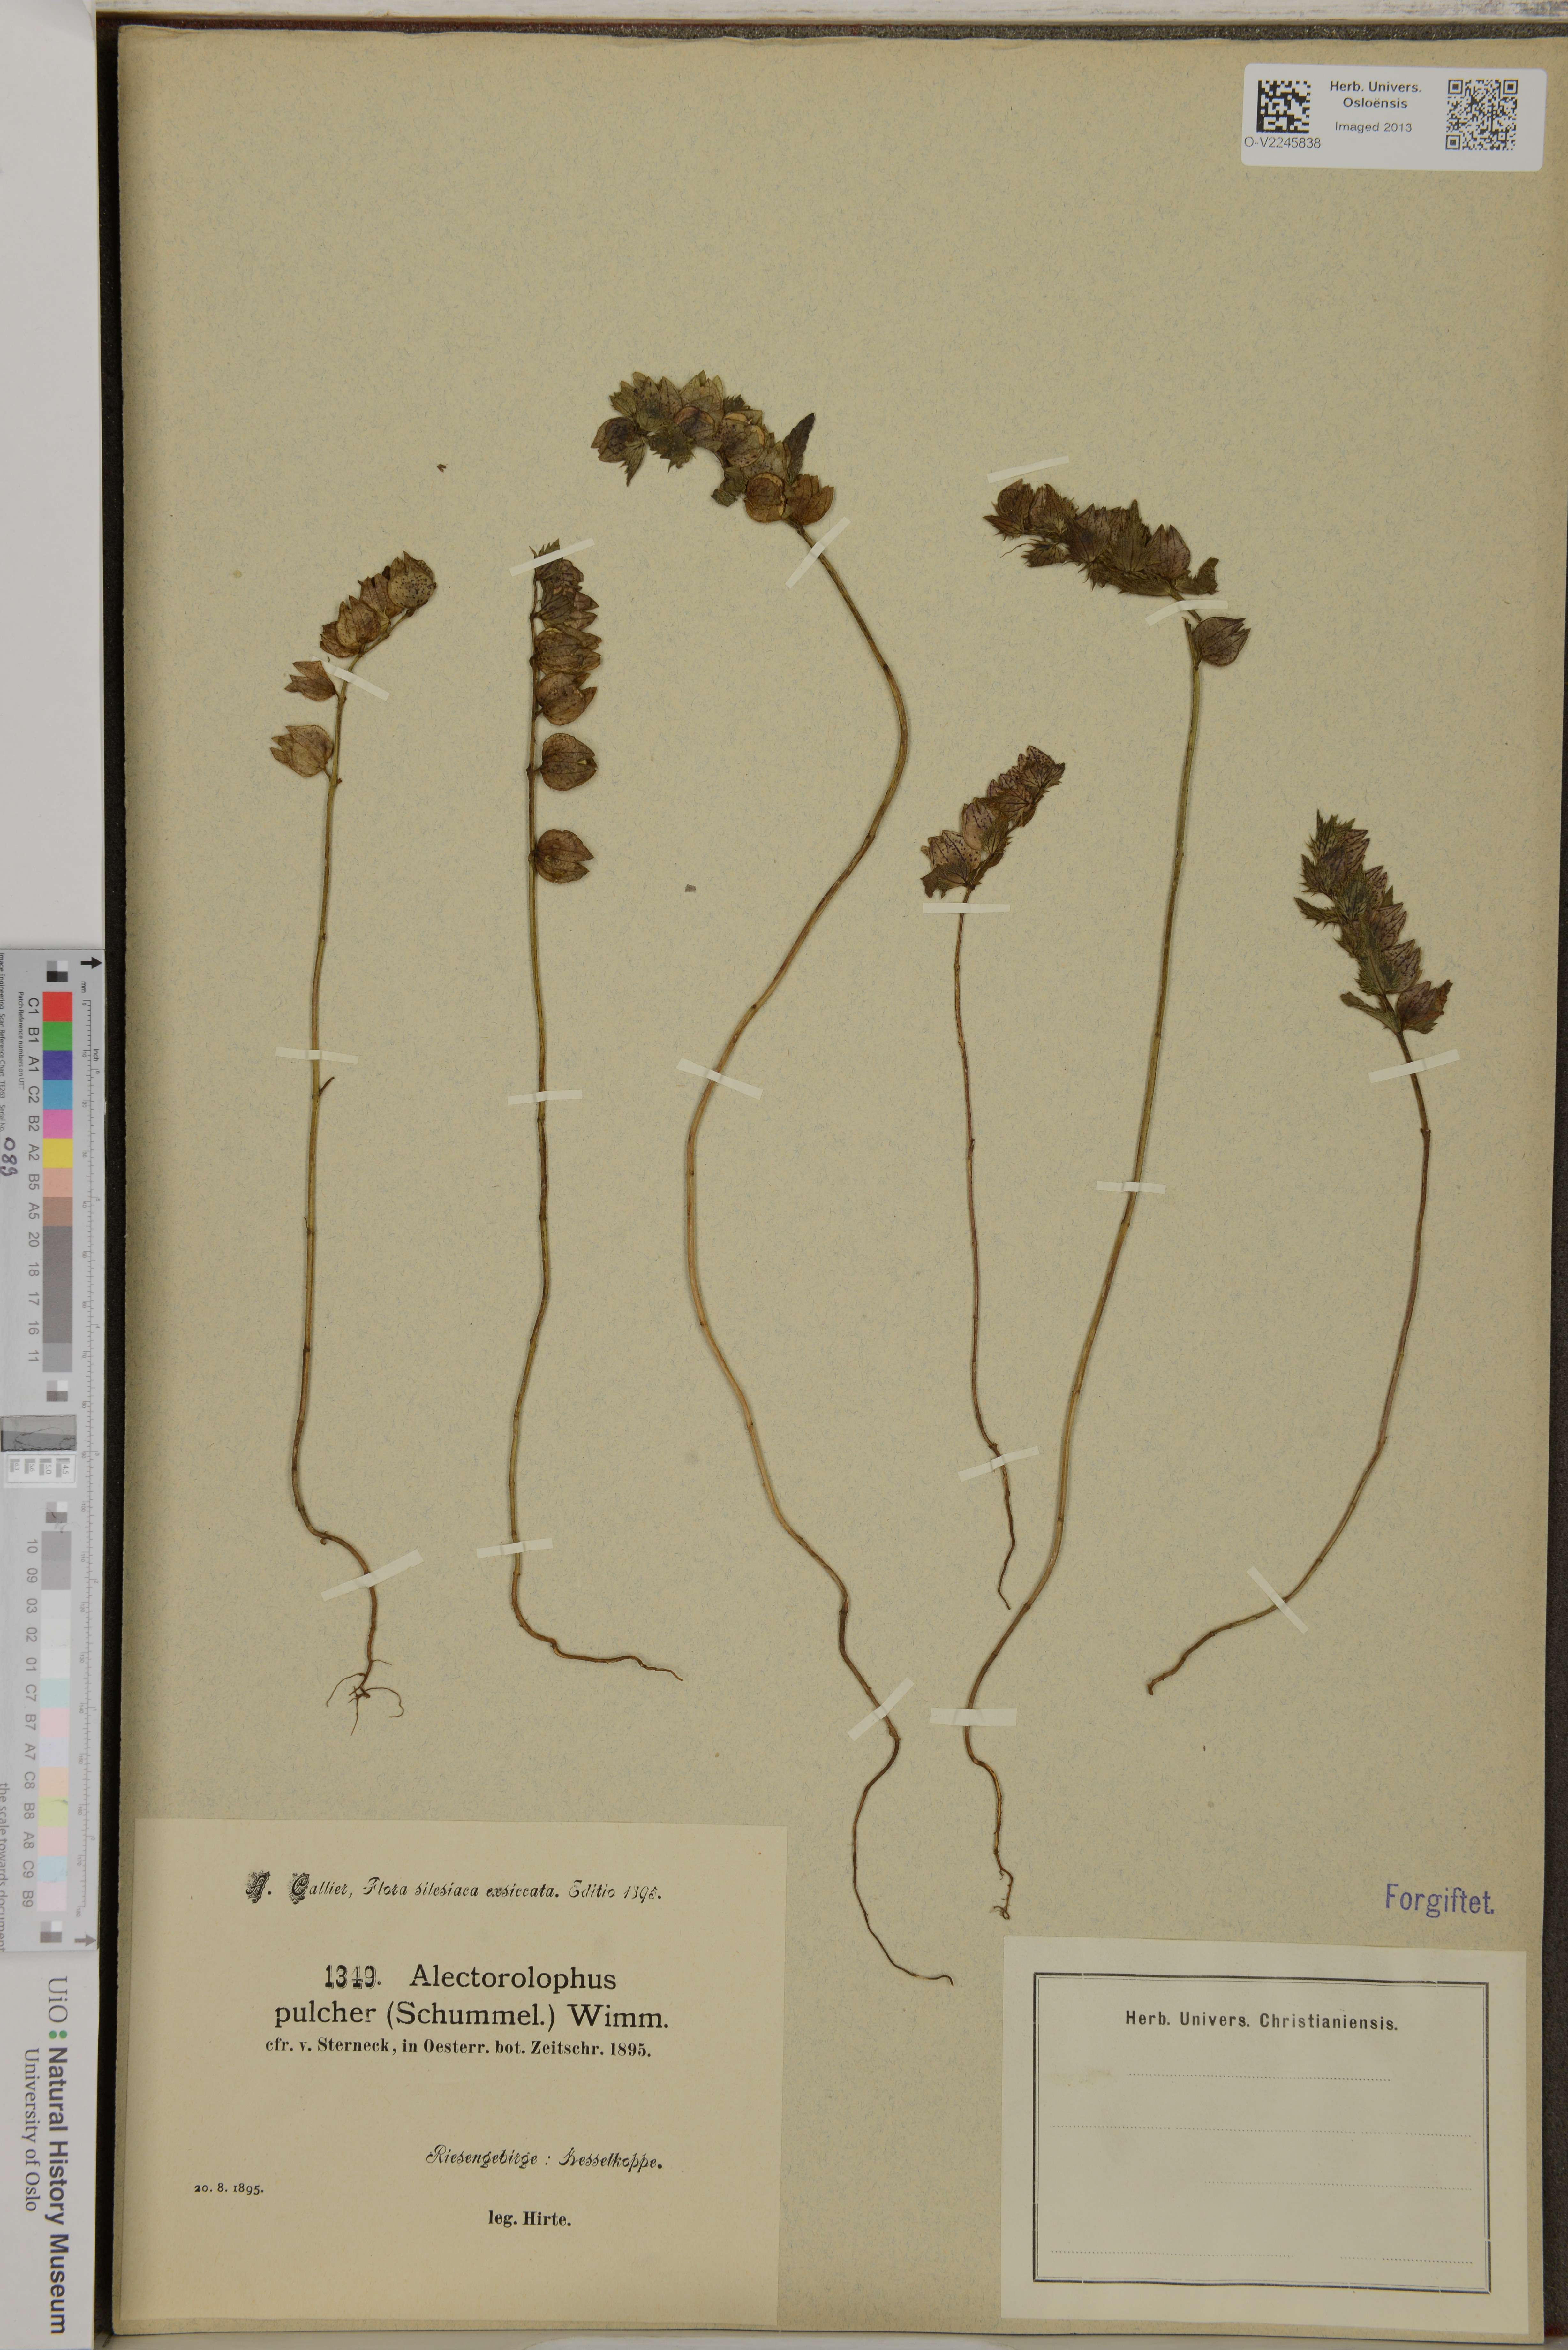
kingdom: Plantae
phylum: Tracheophyta
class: Magnoliopsida
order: Lamiales
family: Orobanchaceae
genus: Alectorolophus
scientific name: Alectorolophus pulcher
